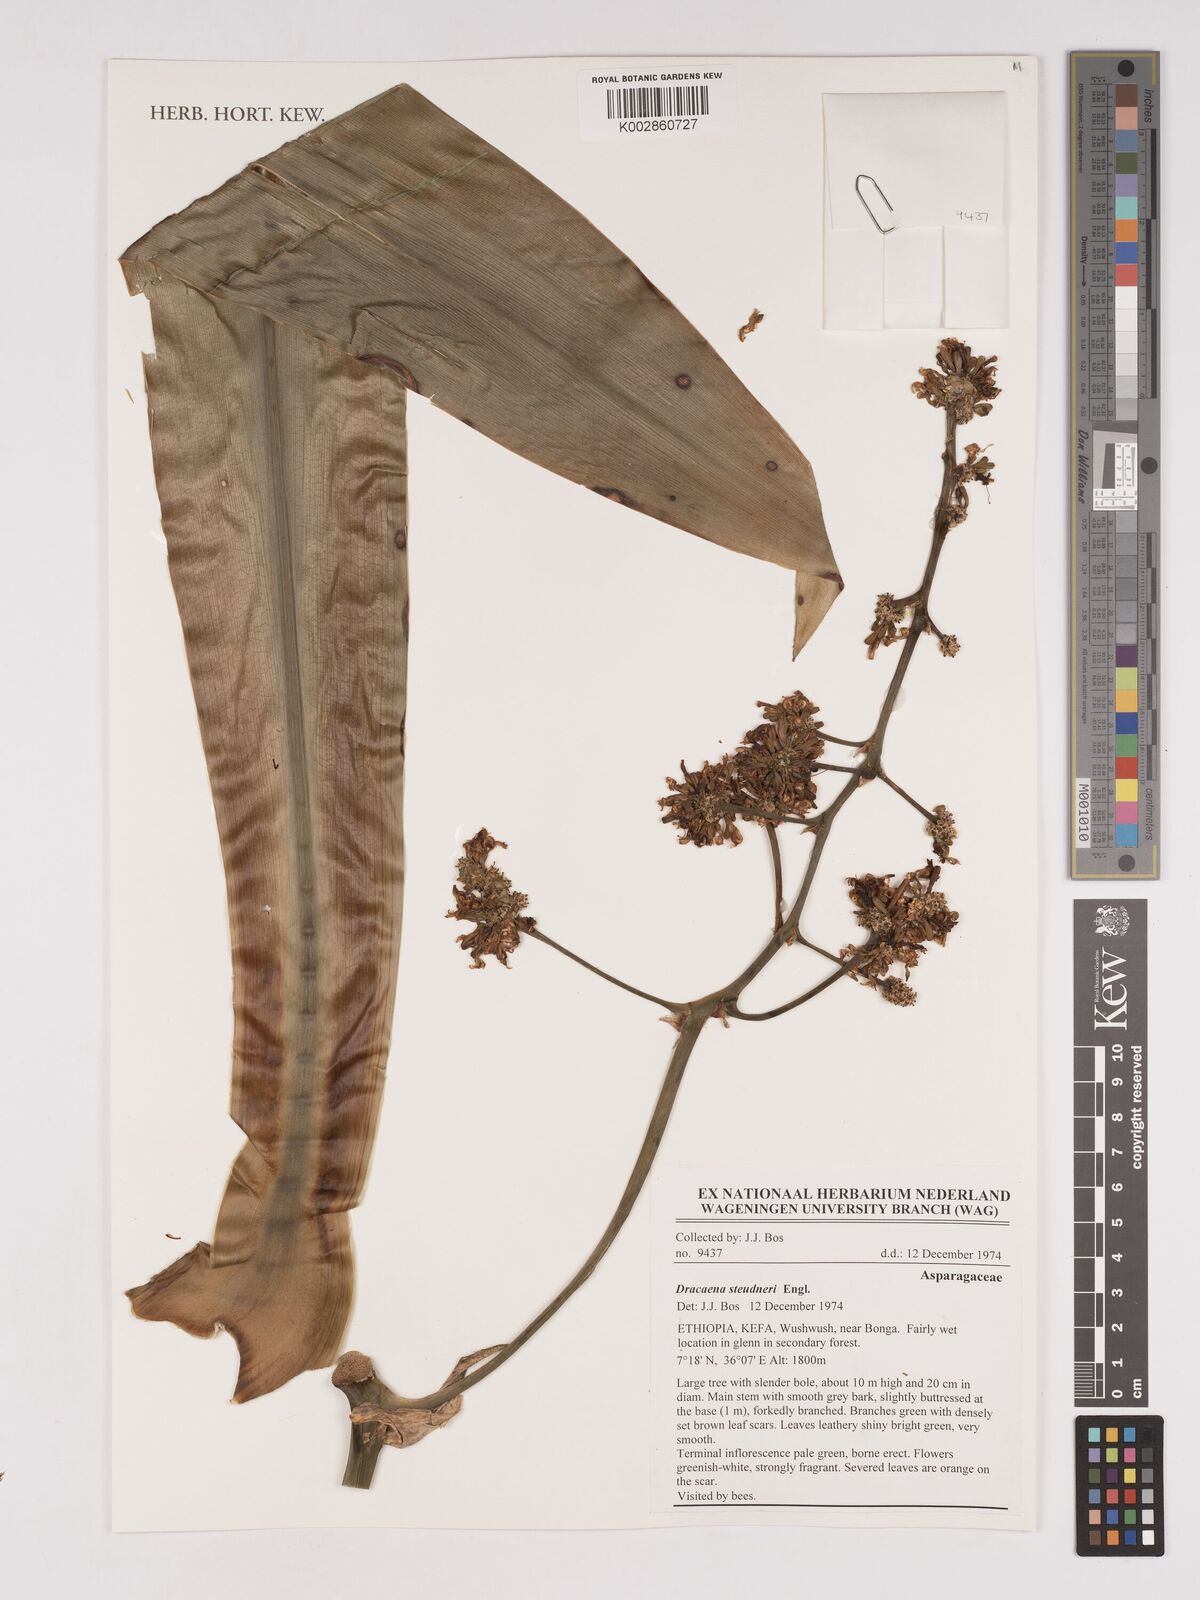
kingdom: Plantae
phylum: Tracheophyta
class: Liliopsida
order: Asparagales
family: Asparagaceae
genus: Dracaena
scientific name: Dracaena steudneri
